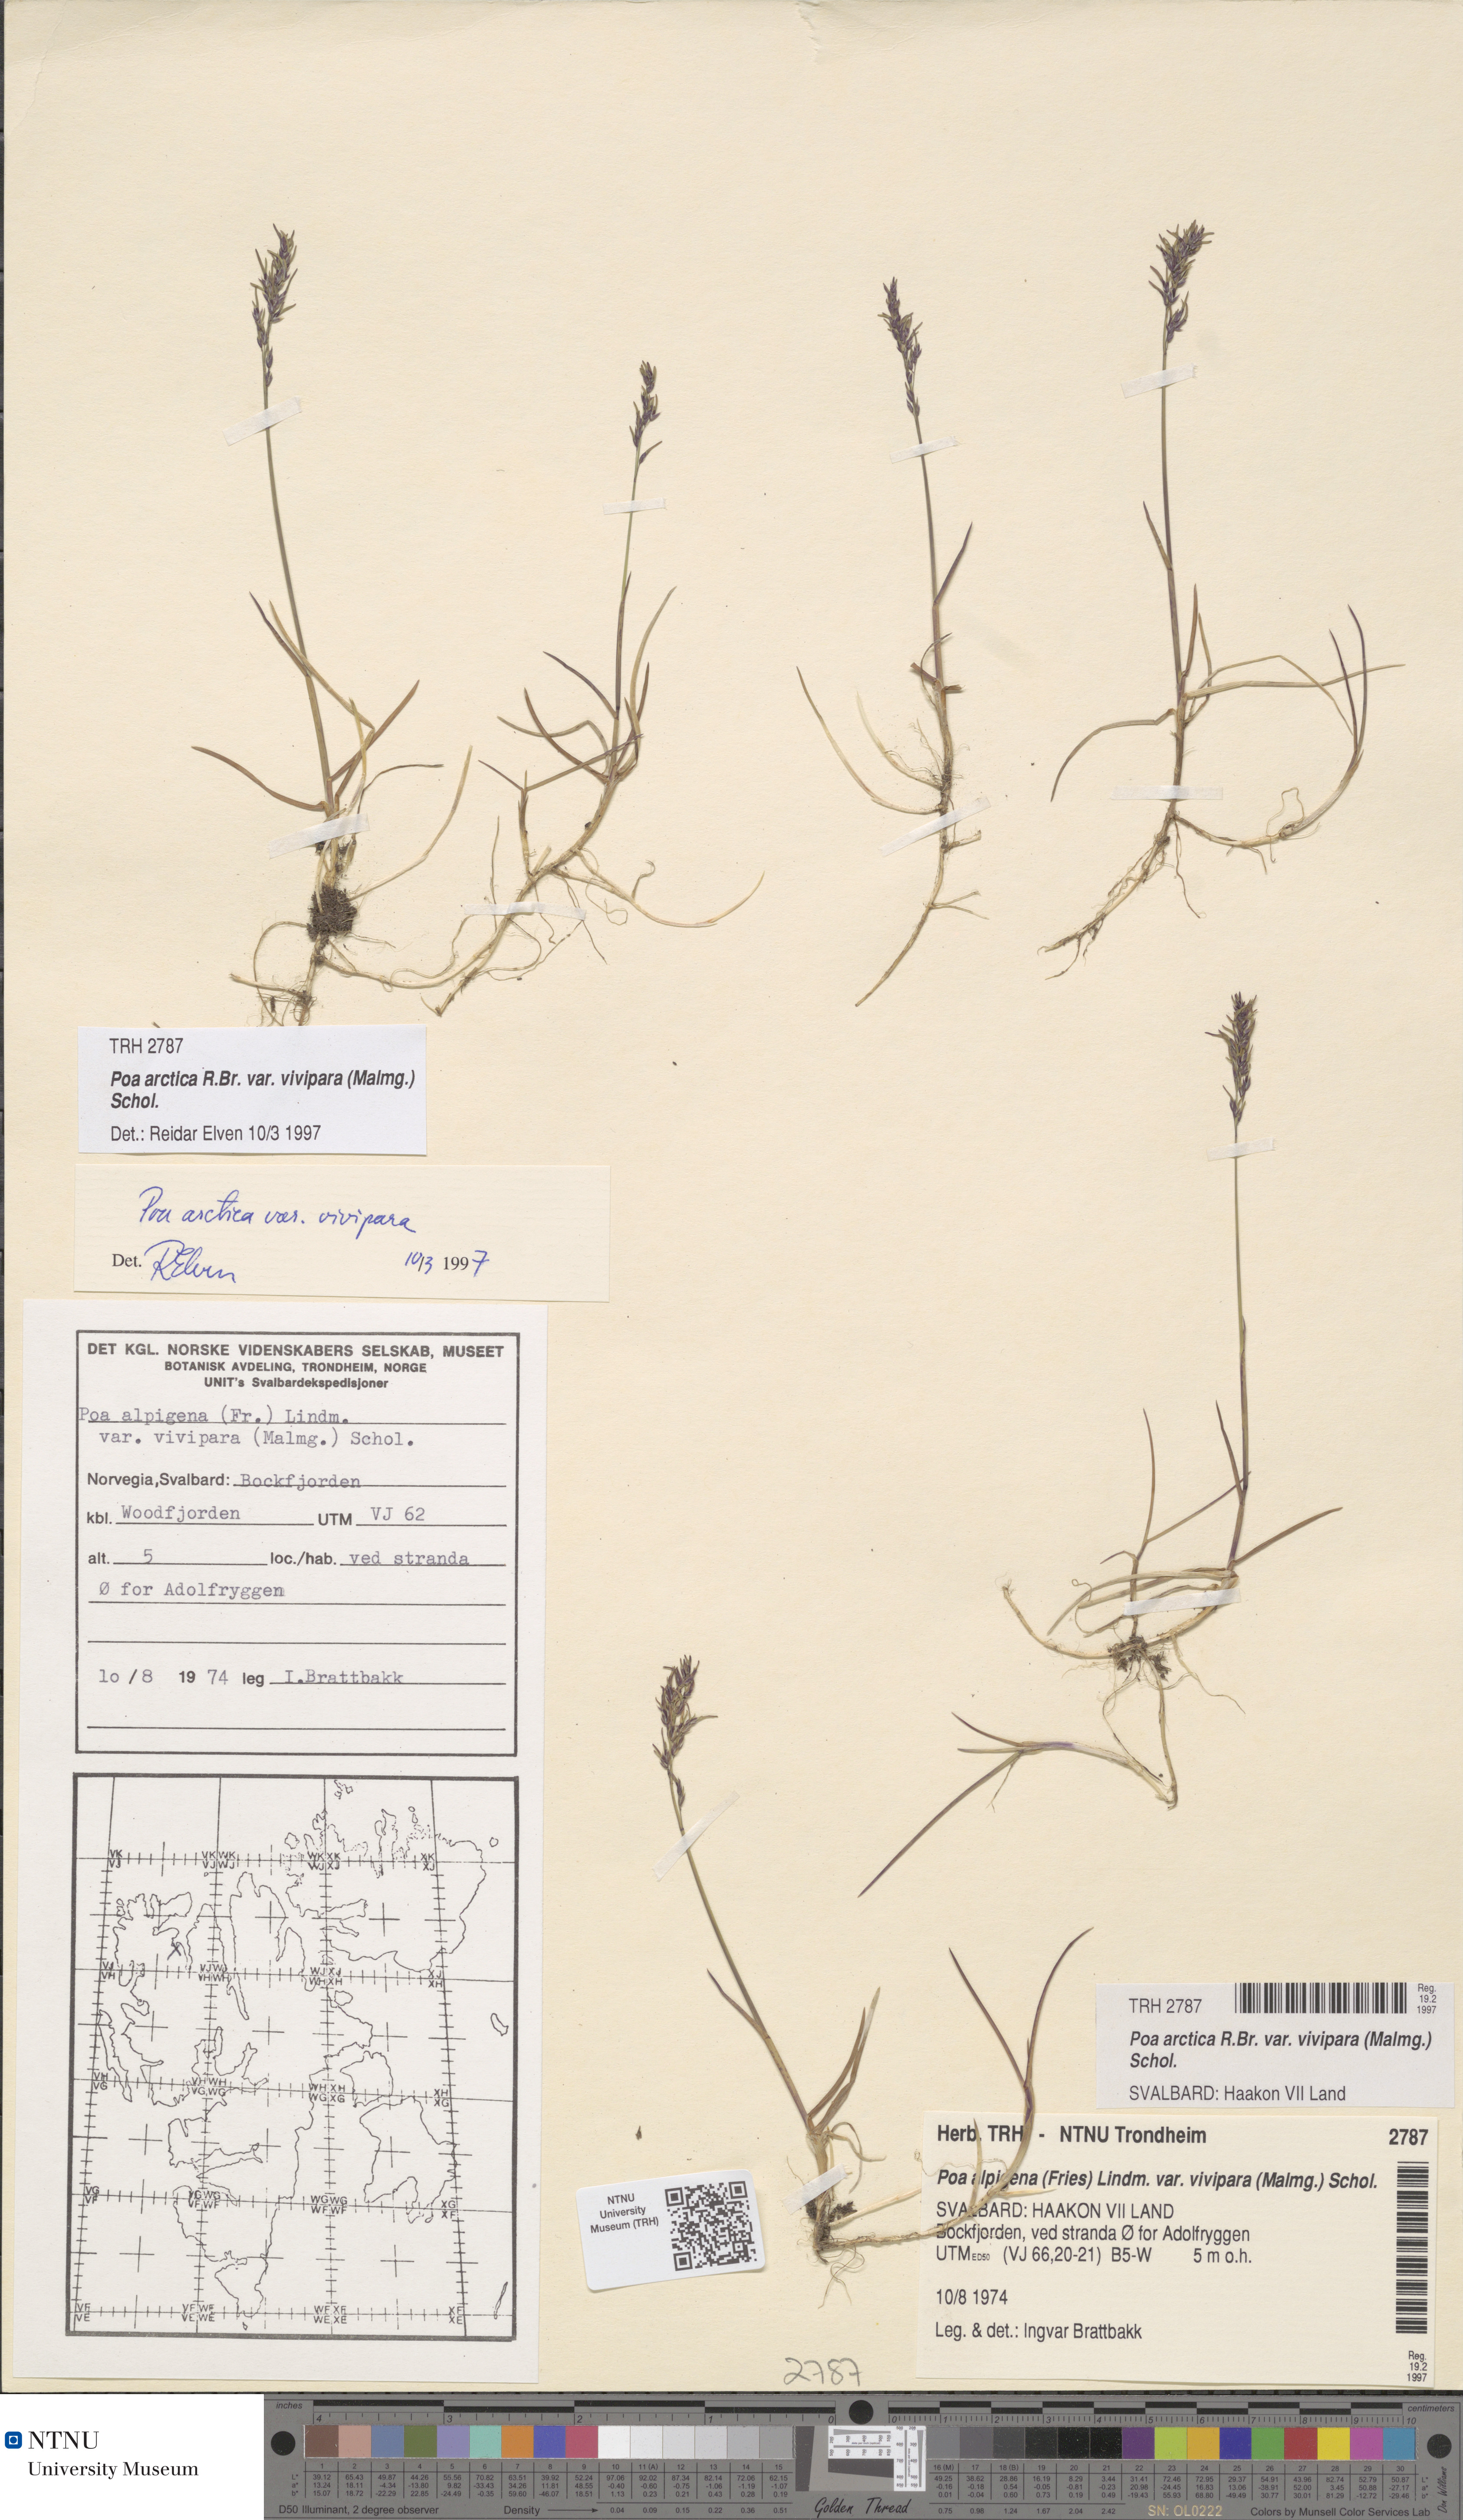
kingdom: Plantae
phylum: Tracheophyta
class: Liliopsida
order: Poales
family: Poaceae
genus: Poa
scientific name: Poa arctica
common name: Arctic bluegrass
